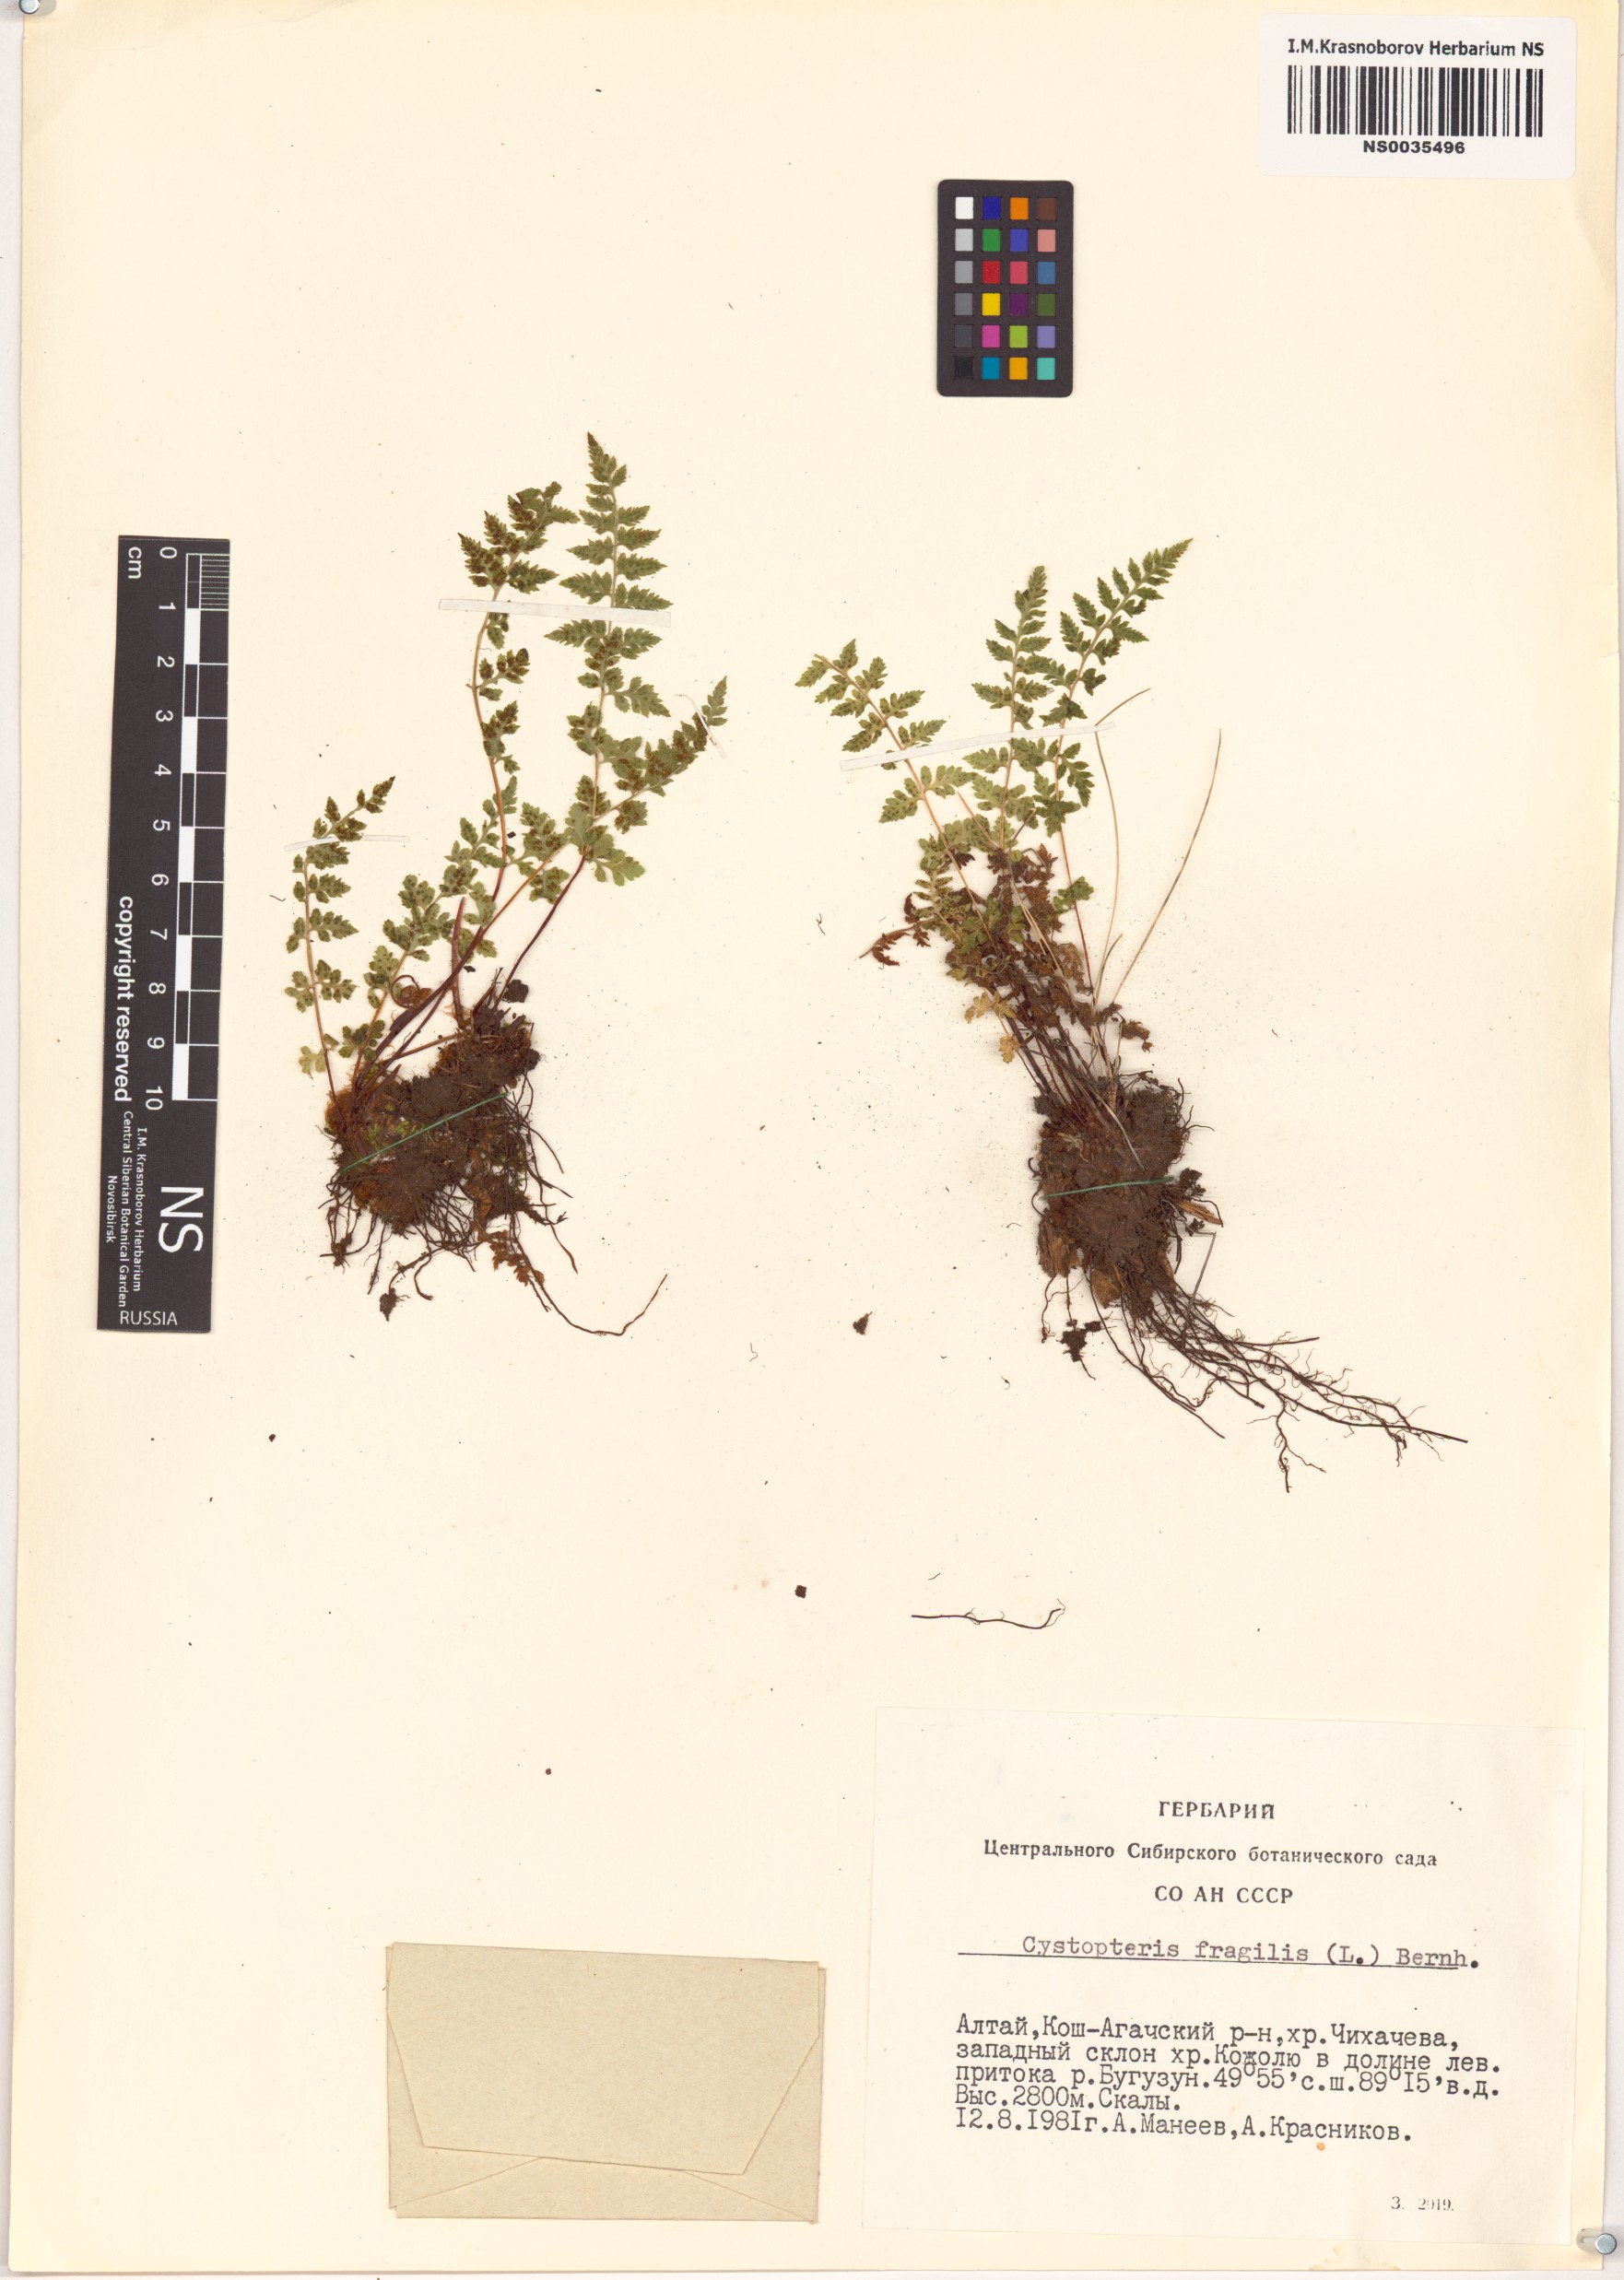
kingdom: Plantae
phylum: Tracheophyta
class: Polypodiopsida
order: Polypodiales
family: Cystopteridaceae
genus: Cystopteris
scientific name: Cystopteris fragilis
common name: Brittle bladder fern
